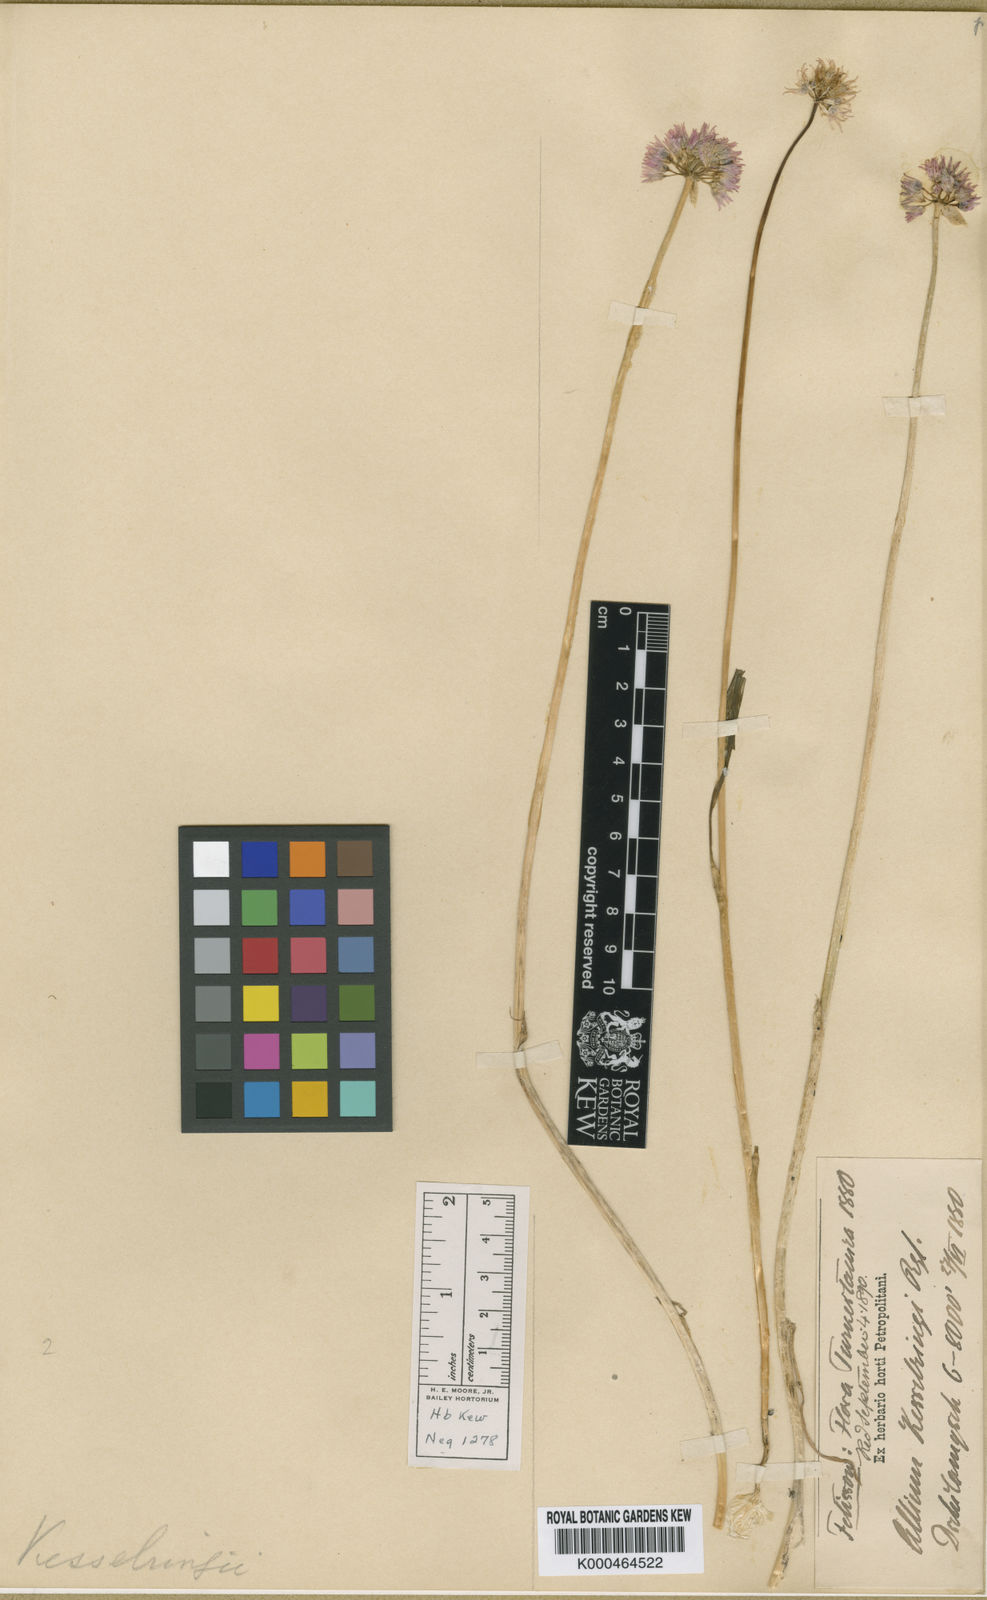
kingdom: Plantae
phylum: Tracheophyta
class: Liliopsida
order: Asparagales
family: Amaryllidaceae
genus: Allium
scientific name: Allium schoenoprasoides
